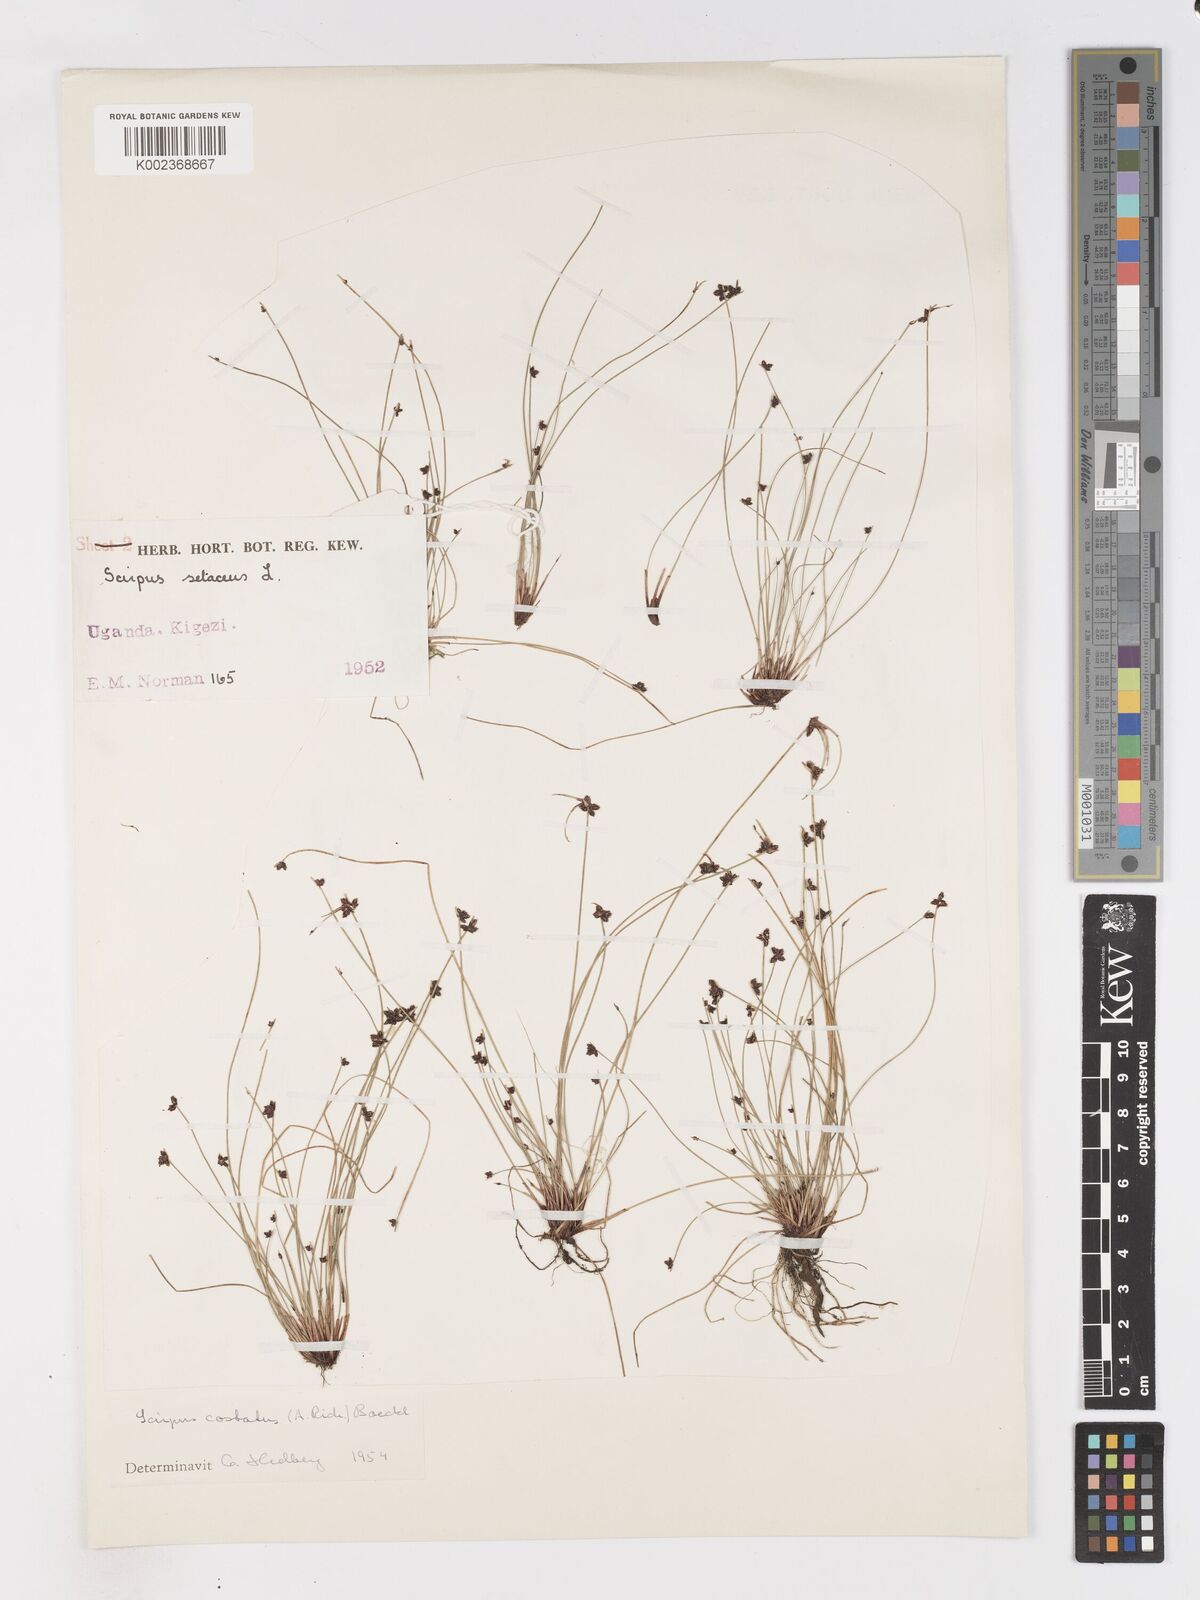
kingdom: Plantae
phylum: Tracheophyta
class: Liliopsida
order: Poales
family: Cyperaceae
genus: Isolepis
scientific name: Isolepis costata
